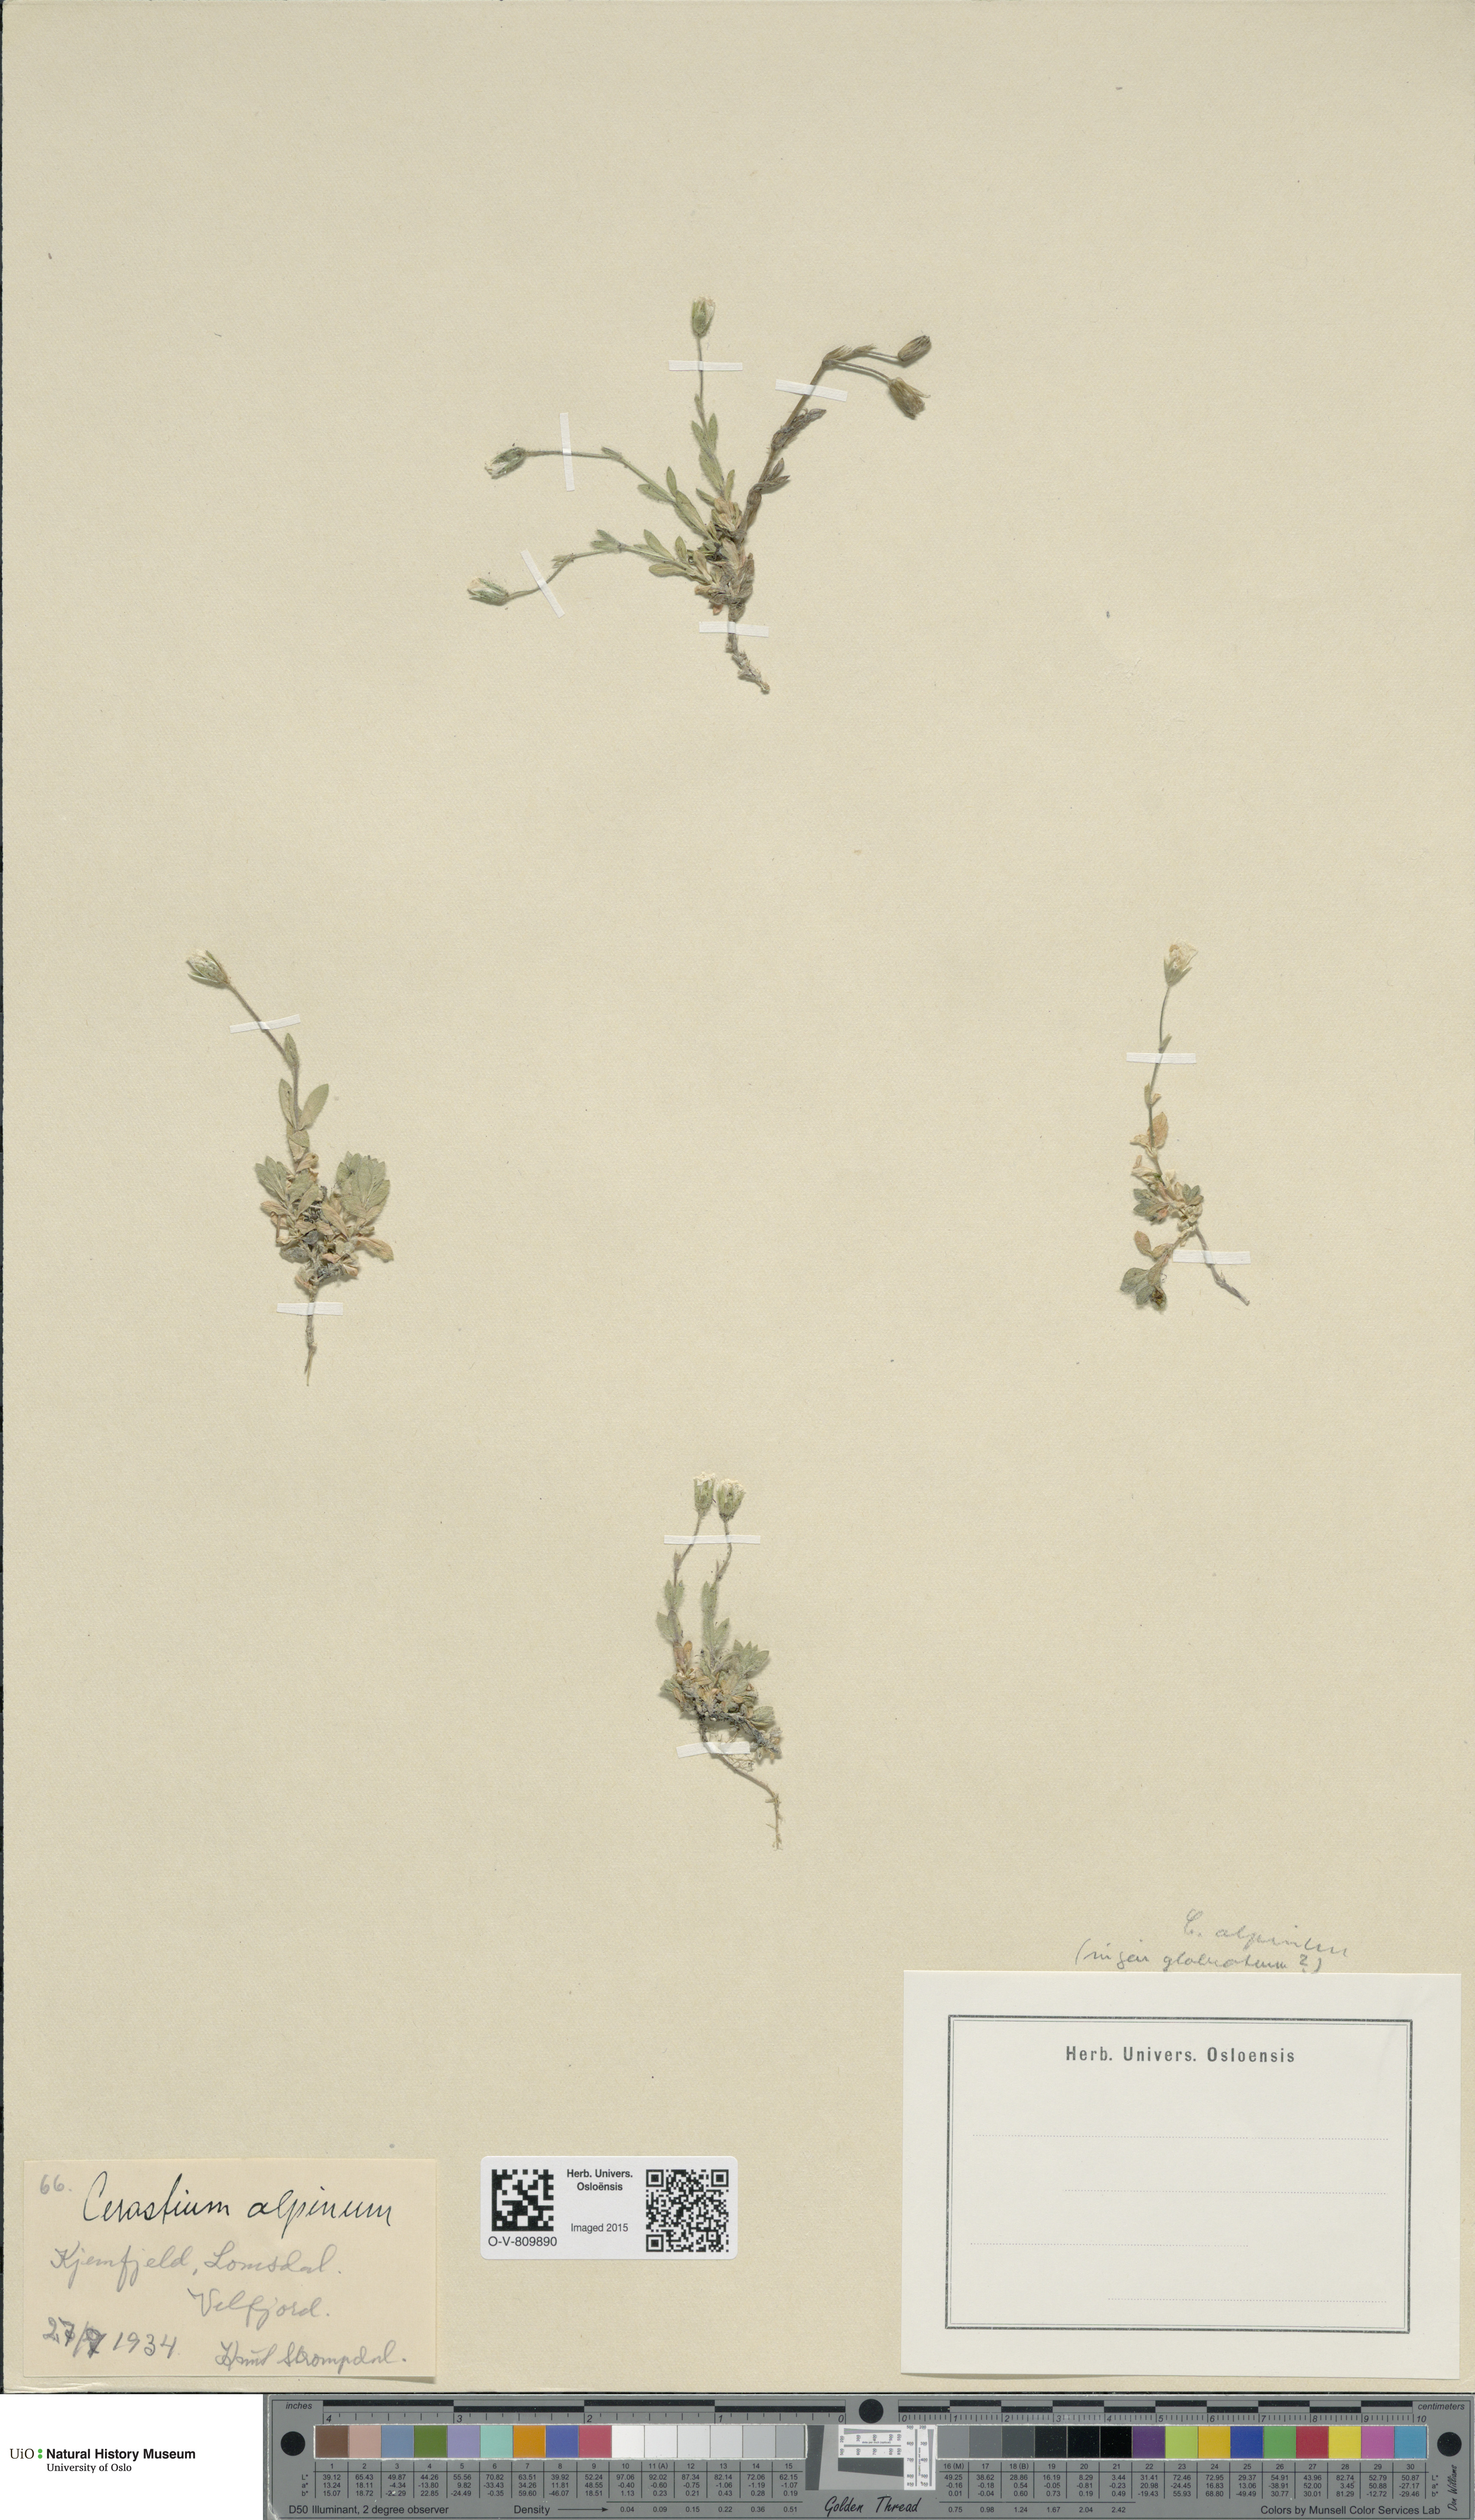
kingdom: Plantae
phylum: Tracheophyta
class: Magnoliopsida
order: Caryophyllales
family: Caryophyllaceae
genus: Cerastium
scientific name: Cerastium alpinum
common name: Alpine mouse-ear
